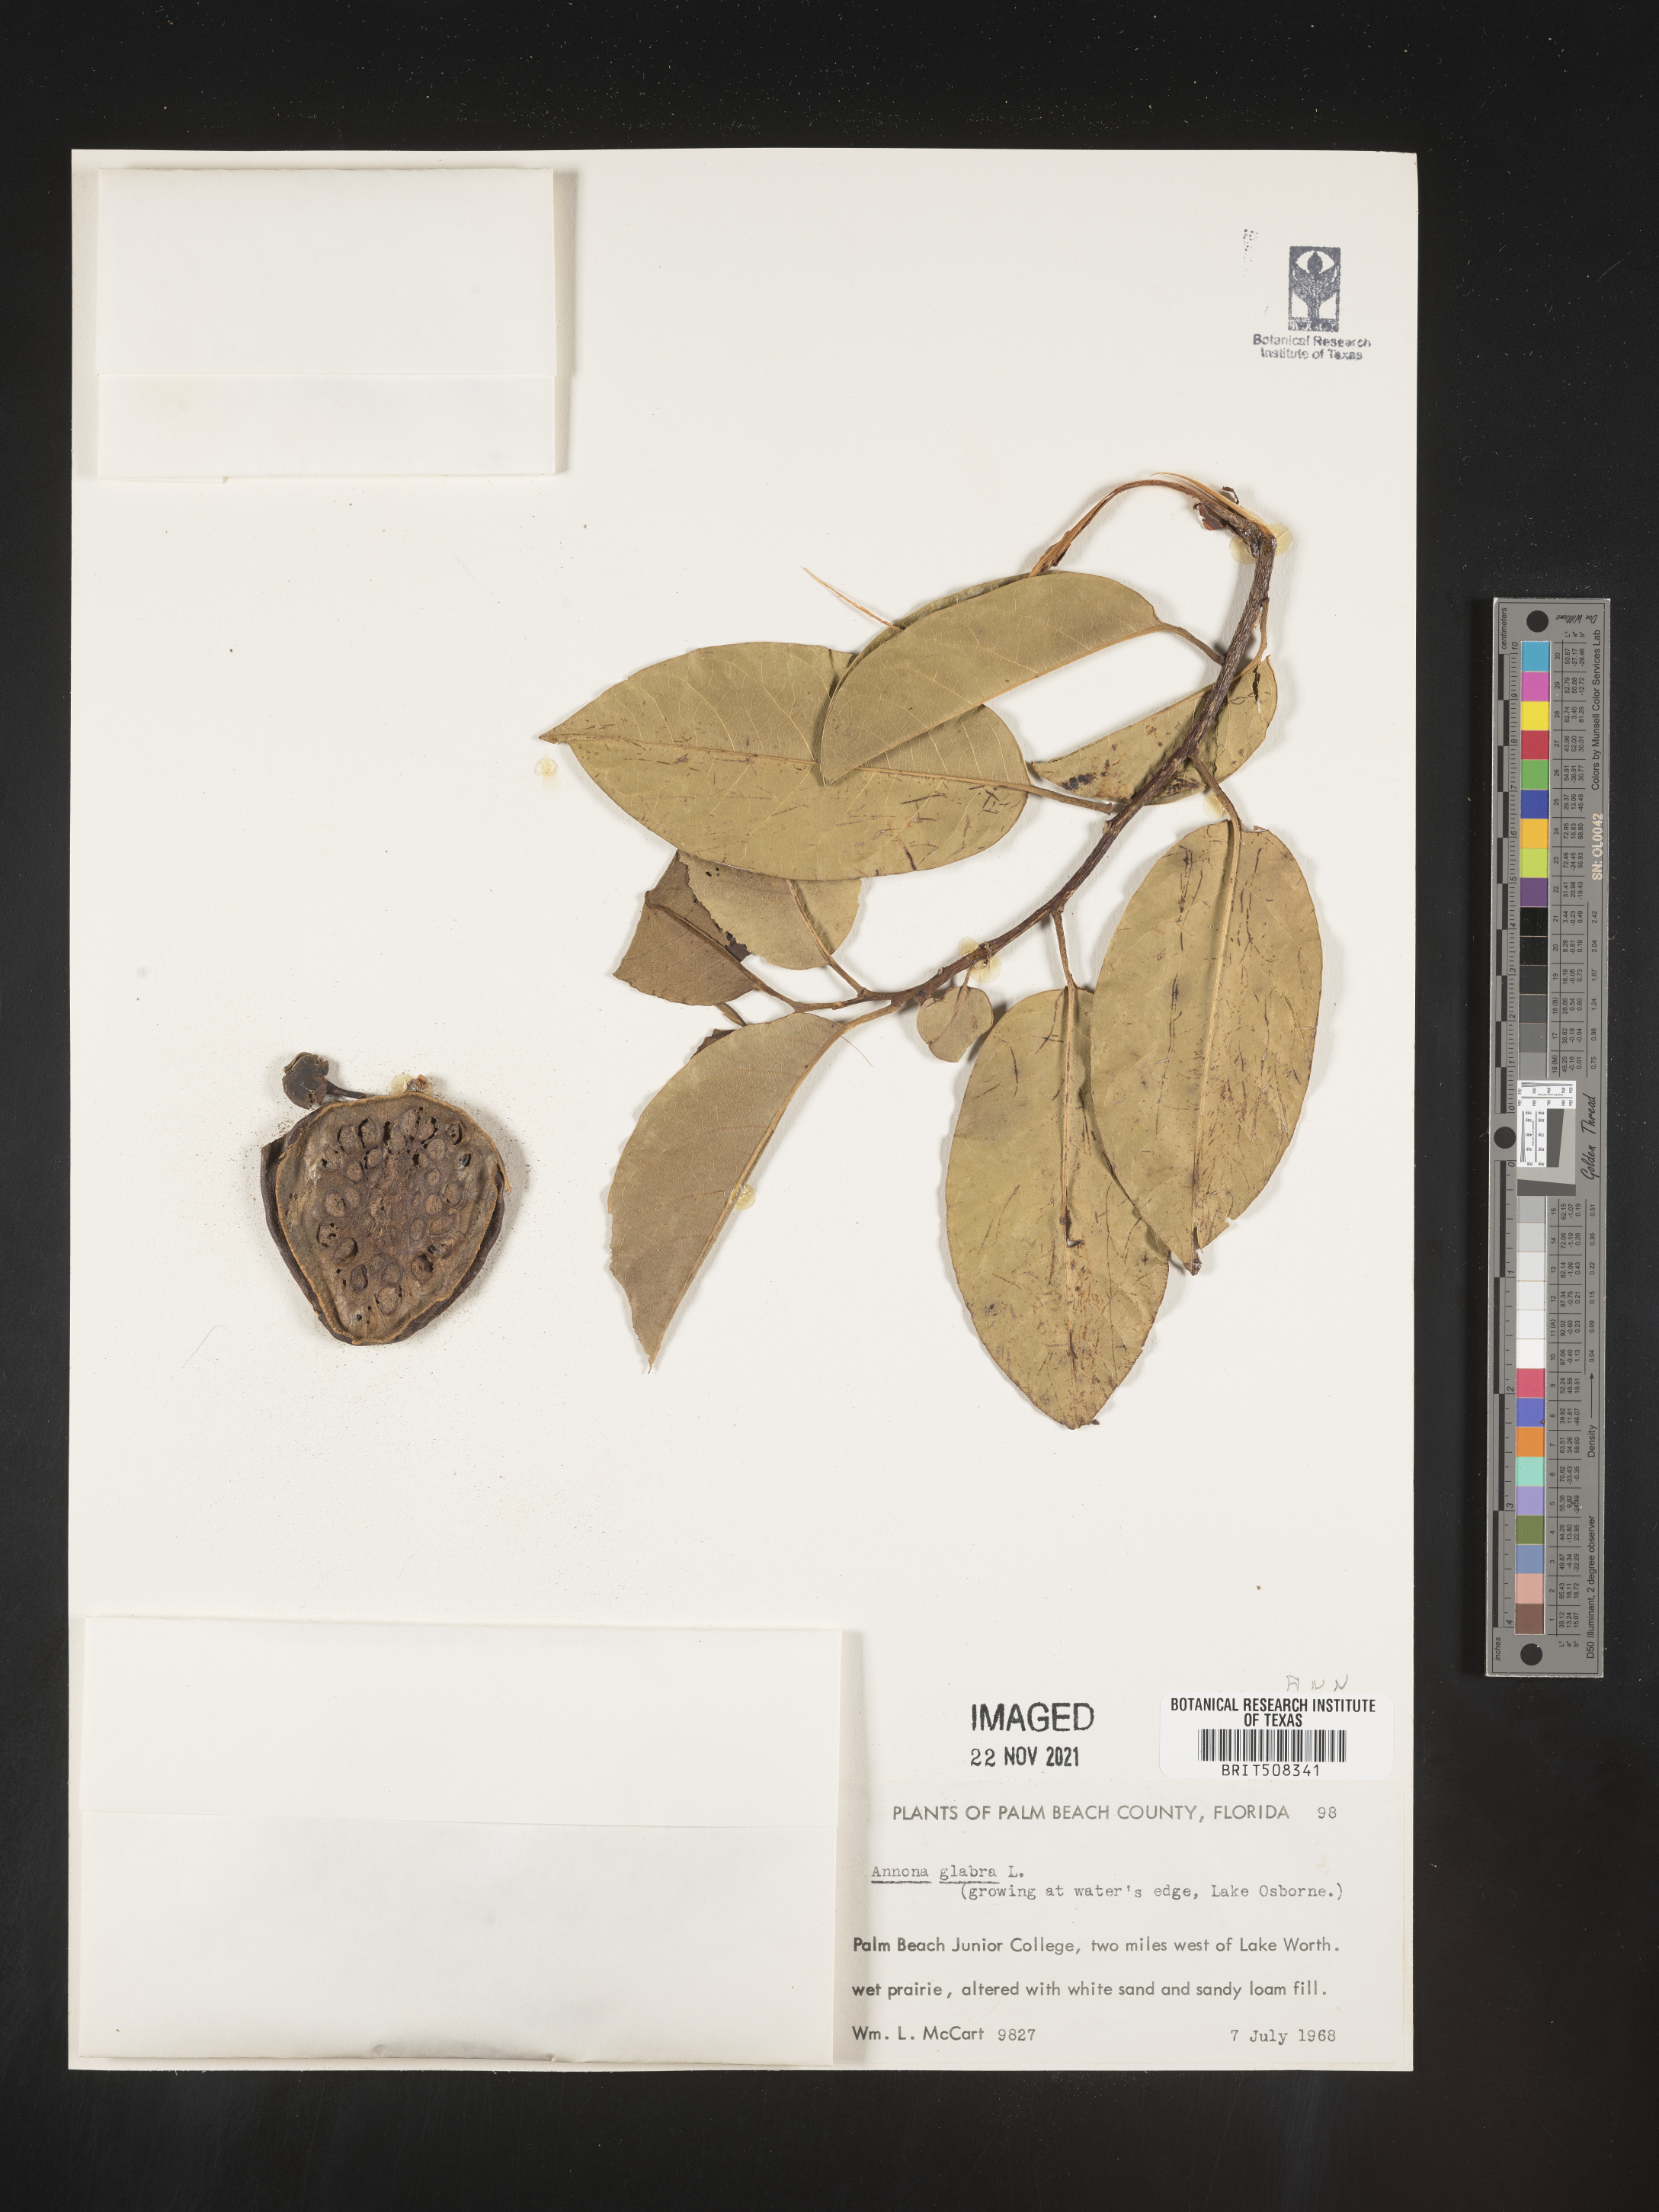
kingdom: Plantae
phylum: Tracheophyta
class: Magnoliopsida
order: Magnoliales
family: Annonaceae
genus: Annona
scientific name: Annona
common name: Anona
